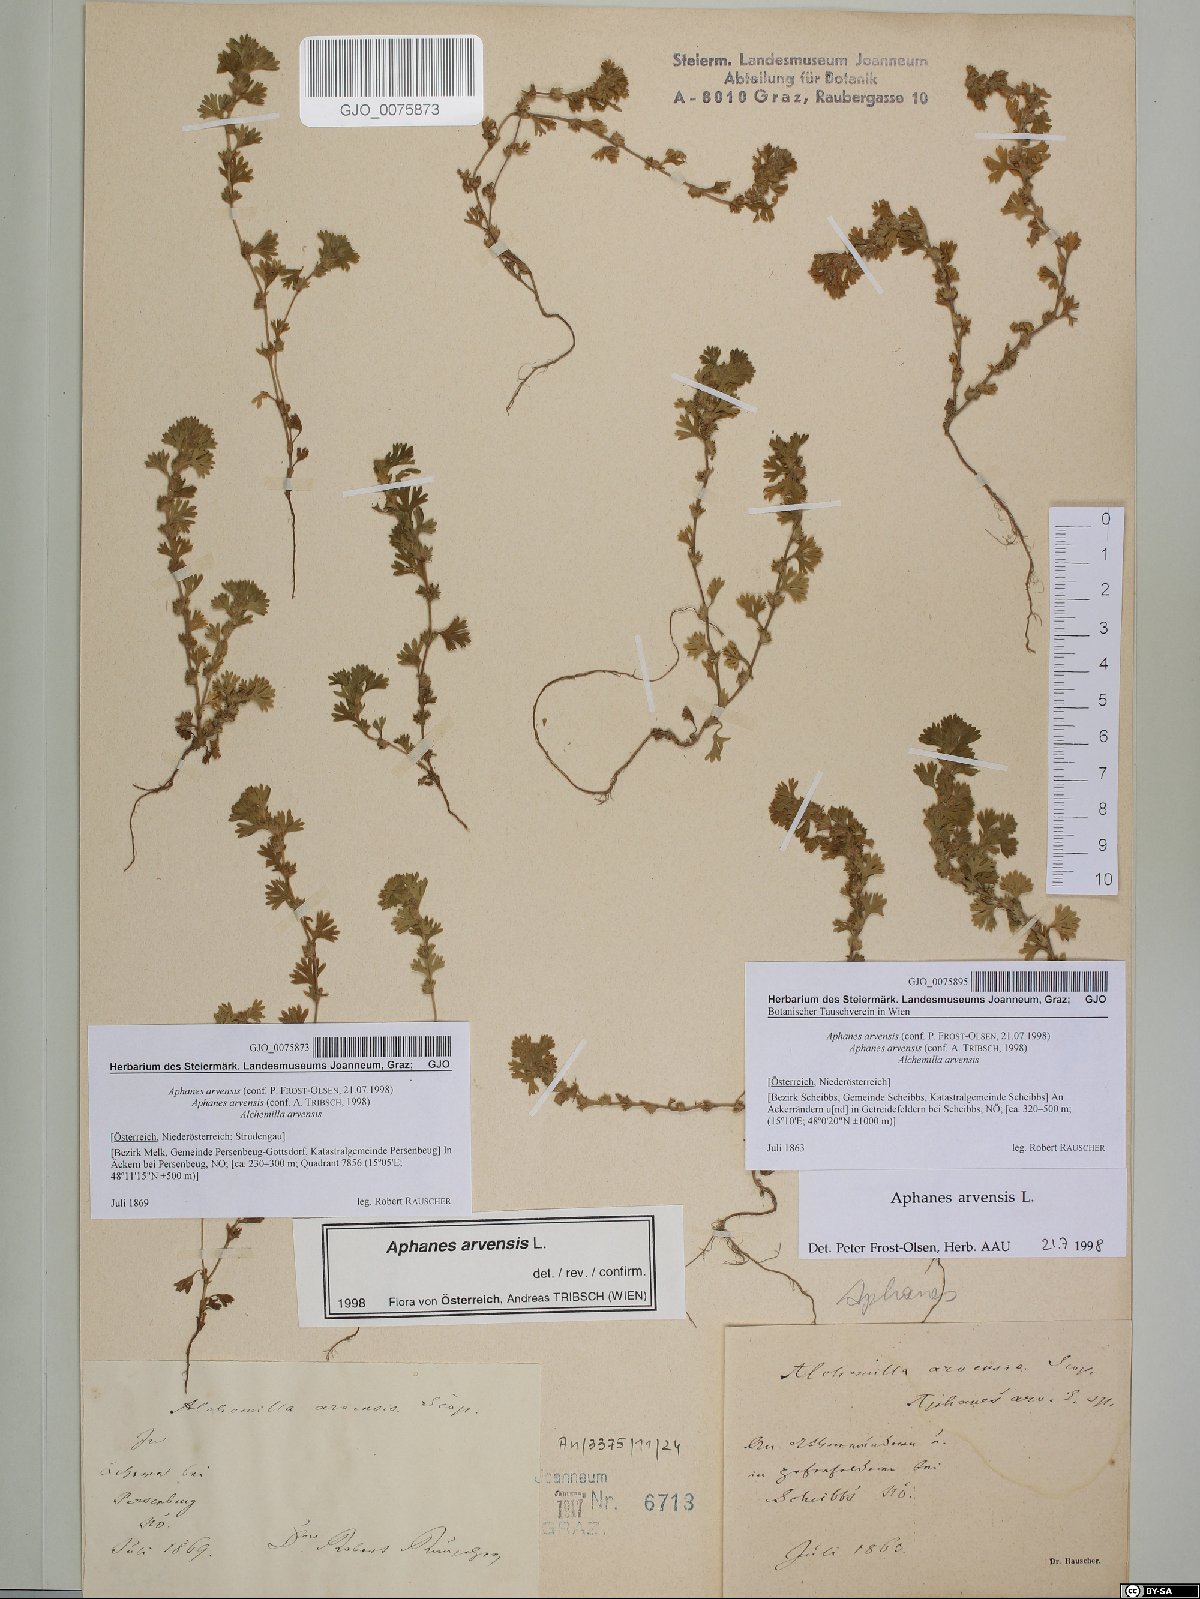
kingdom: Plantae
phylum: Tracheophyta
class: Magnoliopsida
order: Rosales
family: Rosaceae
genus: Aphanes
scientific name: Aphanes arvensis
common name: Parsley-piert
